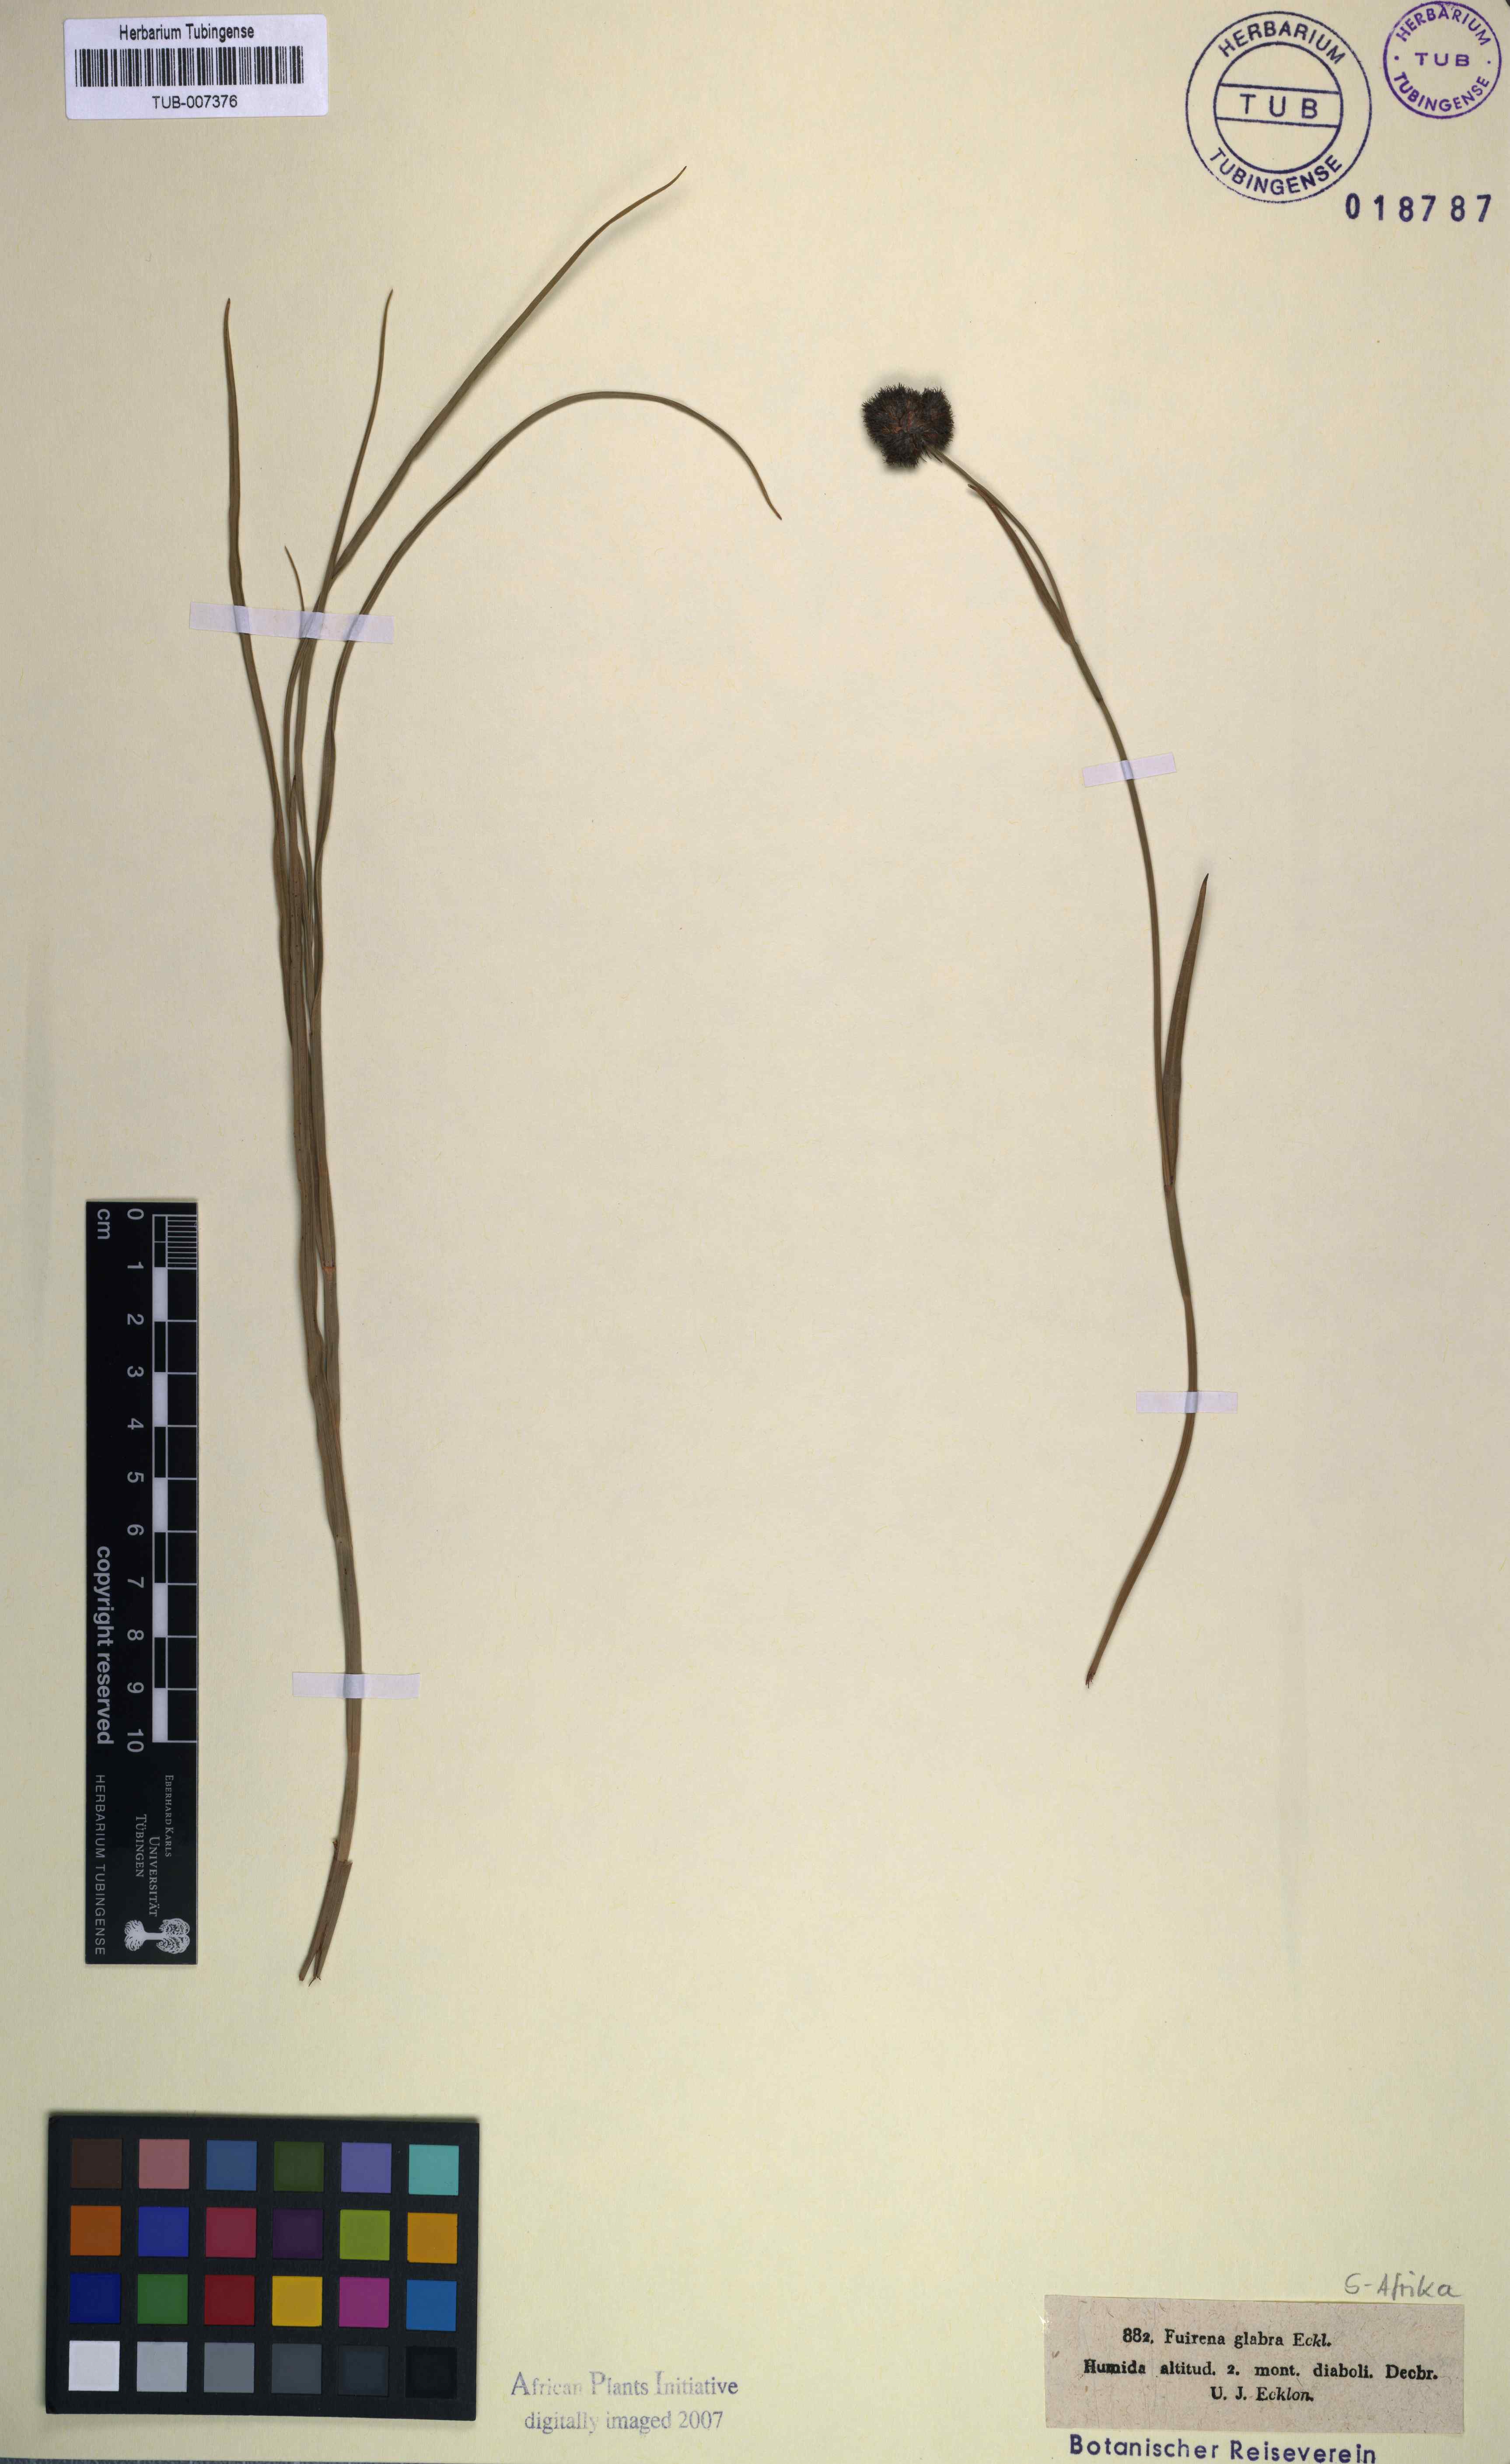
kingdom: Plantae
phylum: Tracheophyta
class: Liliopsida
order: Poales
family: Cyperaceae
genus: Fuirena
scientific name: Fuirena hirsuta
